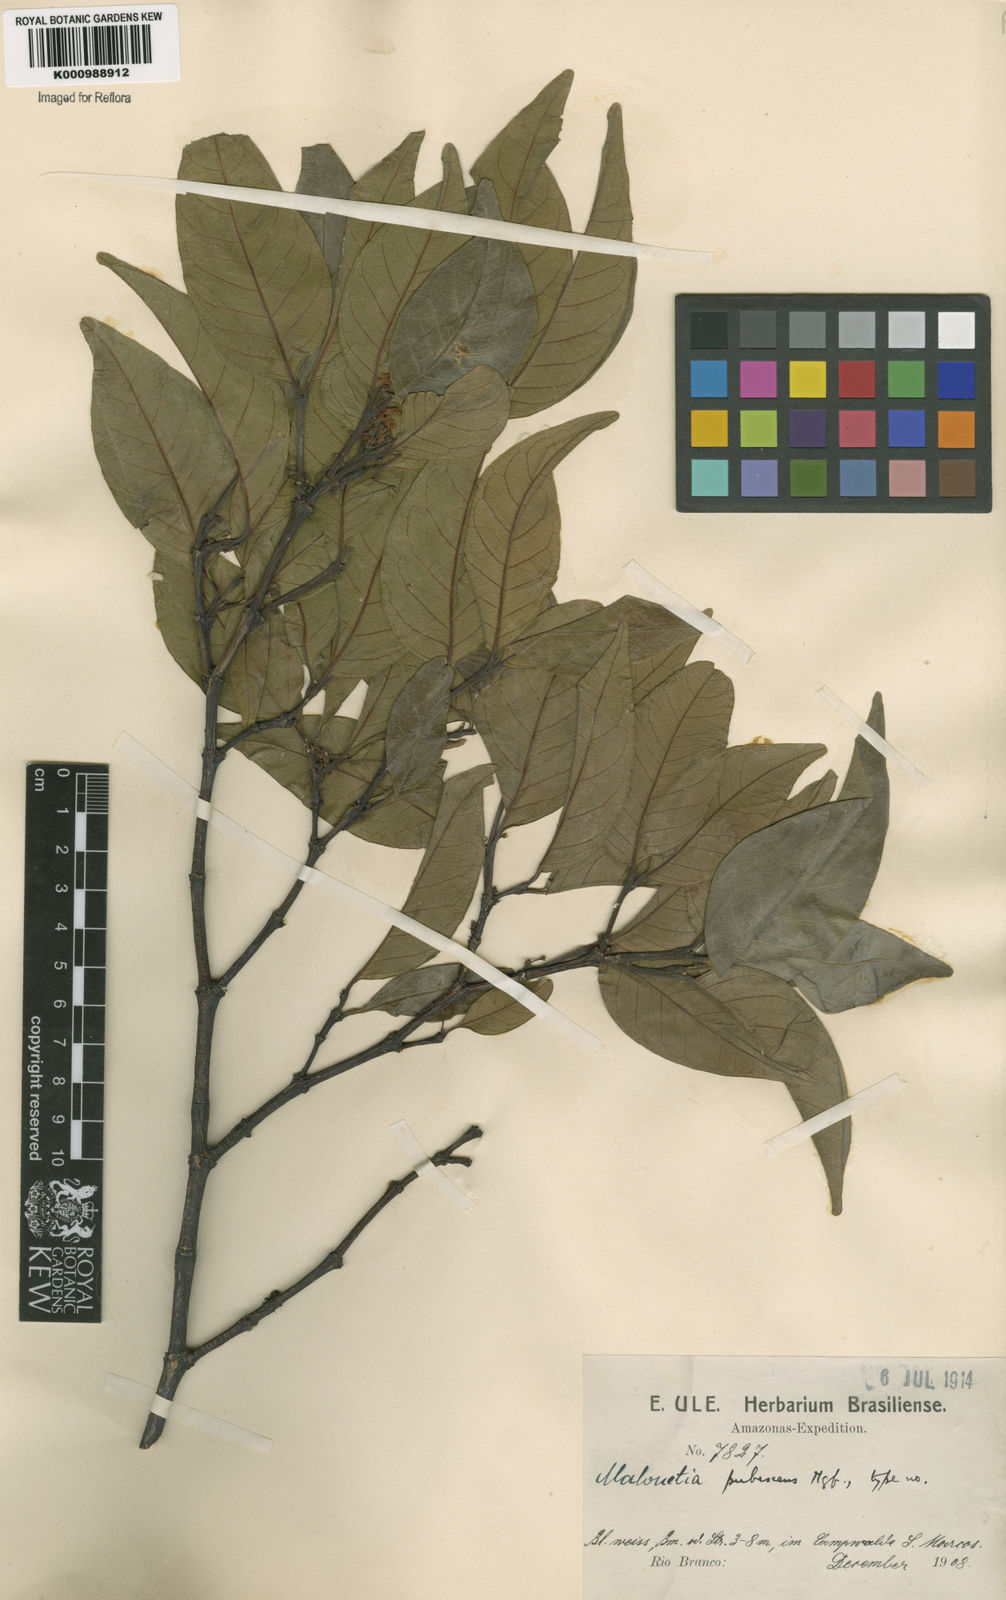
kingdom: Plantae
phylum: Tracheophyta
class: Magnoliopsida
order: Gentianales
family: Apocynaceae
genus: Malouetia
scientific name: Malouetia pubescens
